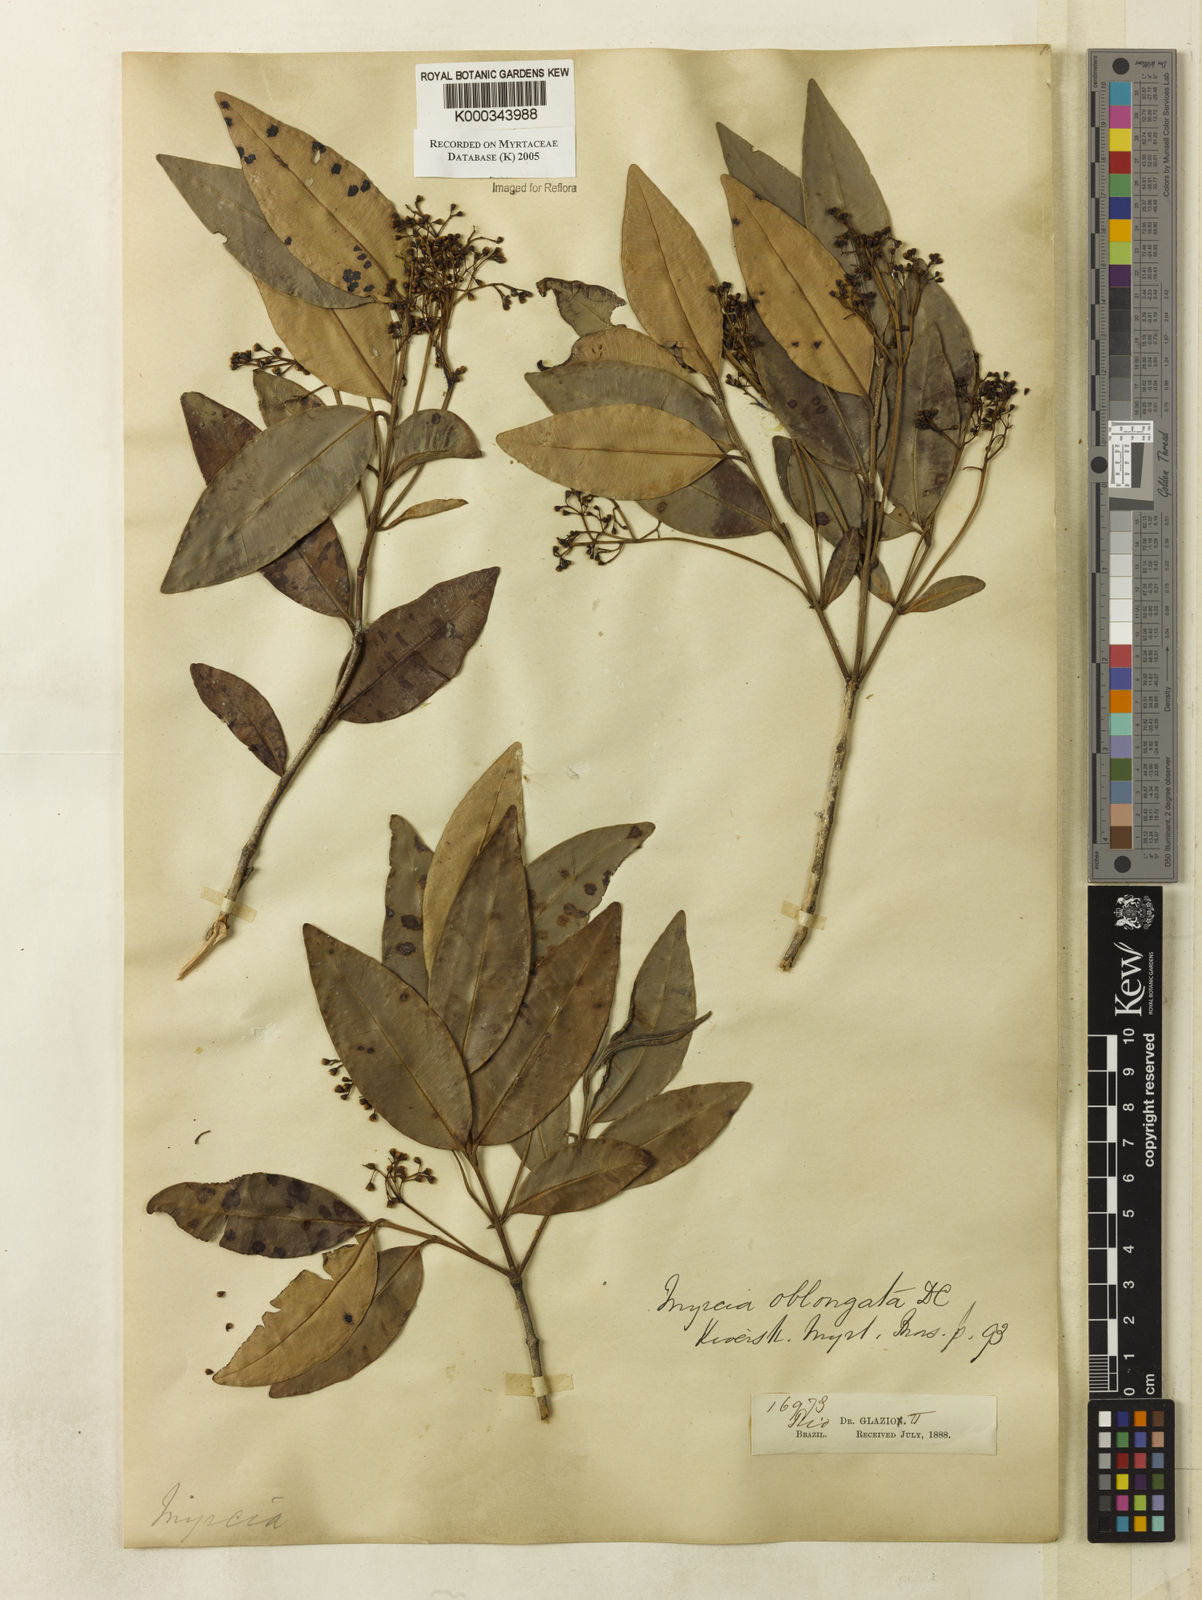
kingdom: Plantae
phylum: Tracheophyta
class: Magnoliopsida
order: Myrtales
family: Myrtaceae
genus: Myrcia
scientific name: Myrcia oblongata
